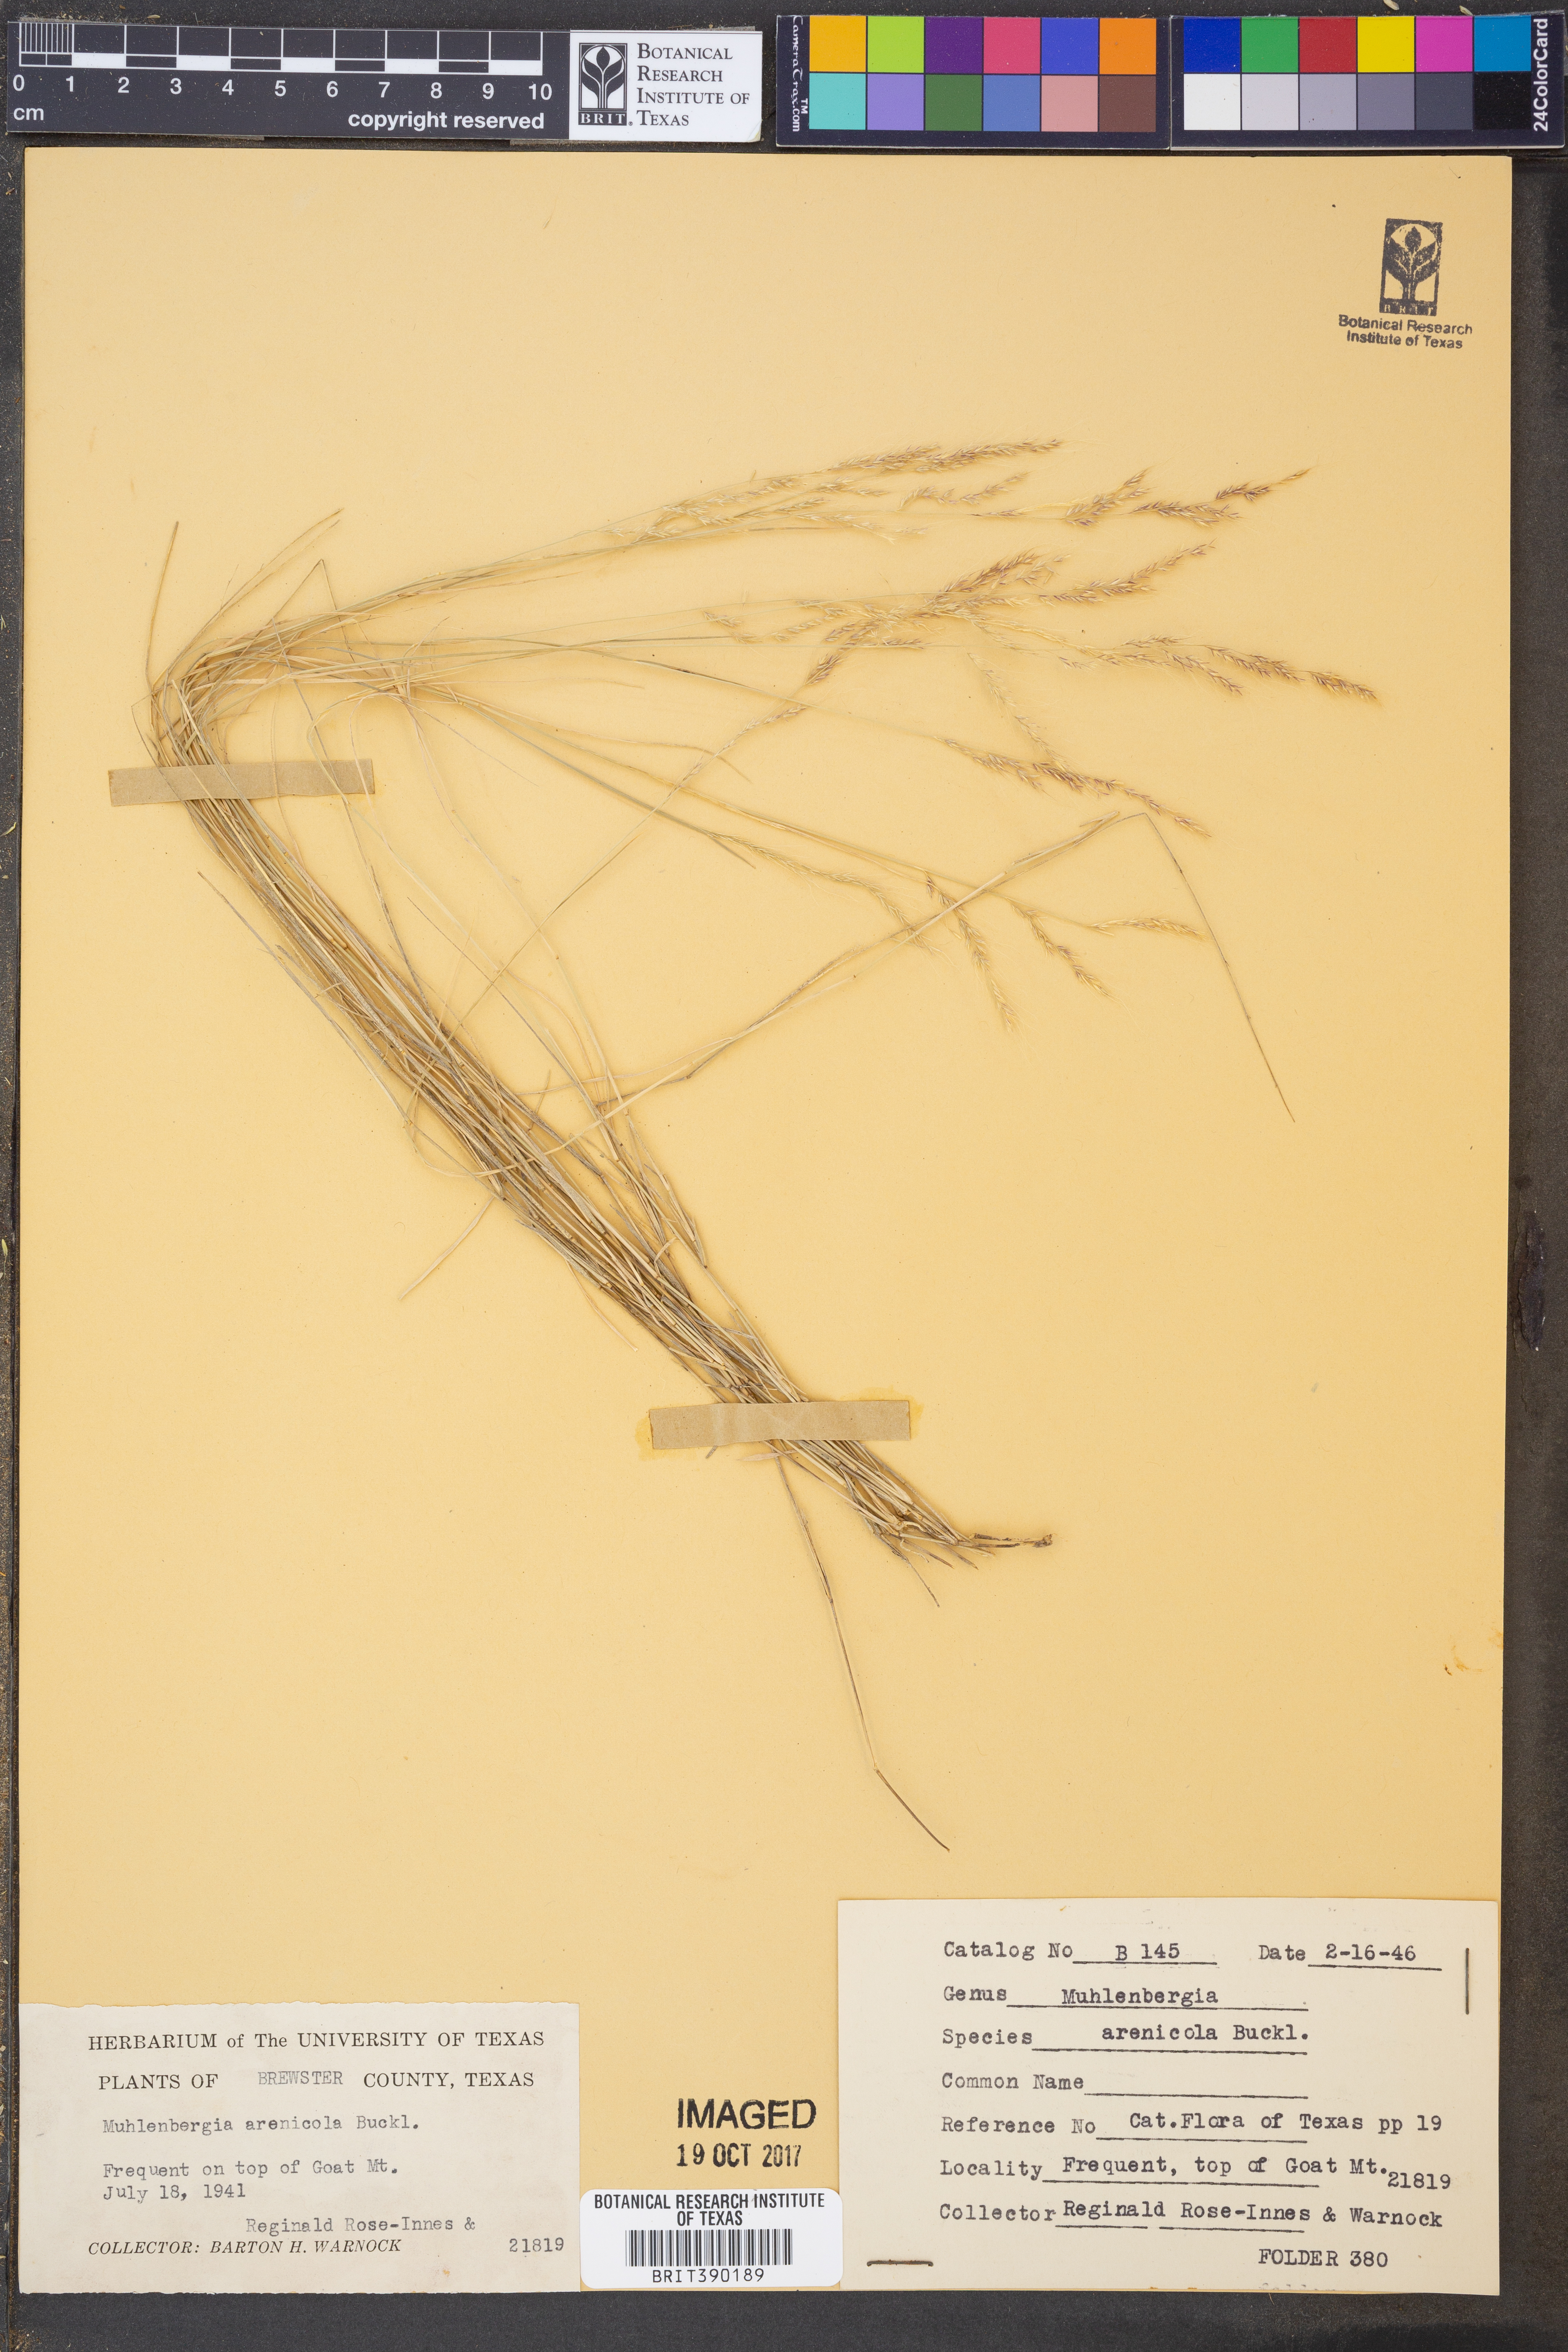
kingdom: Plantae
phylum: Tracheophyta
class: Liliopsida
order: Poales
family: Poaceae
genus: Muhlenbergia
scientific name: Muhlenbergia arenicola
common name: Sand muhly
